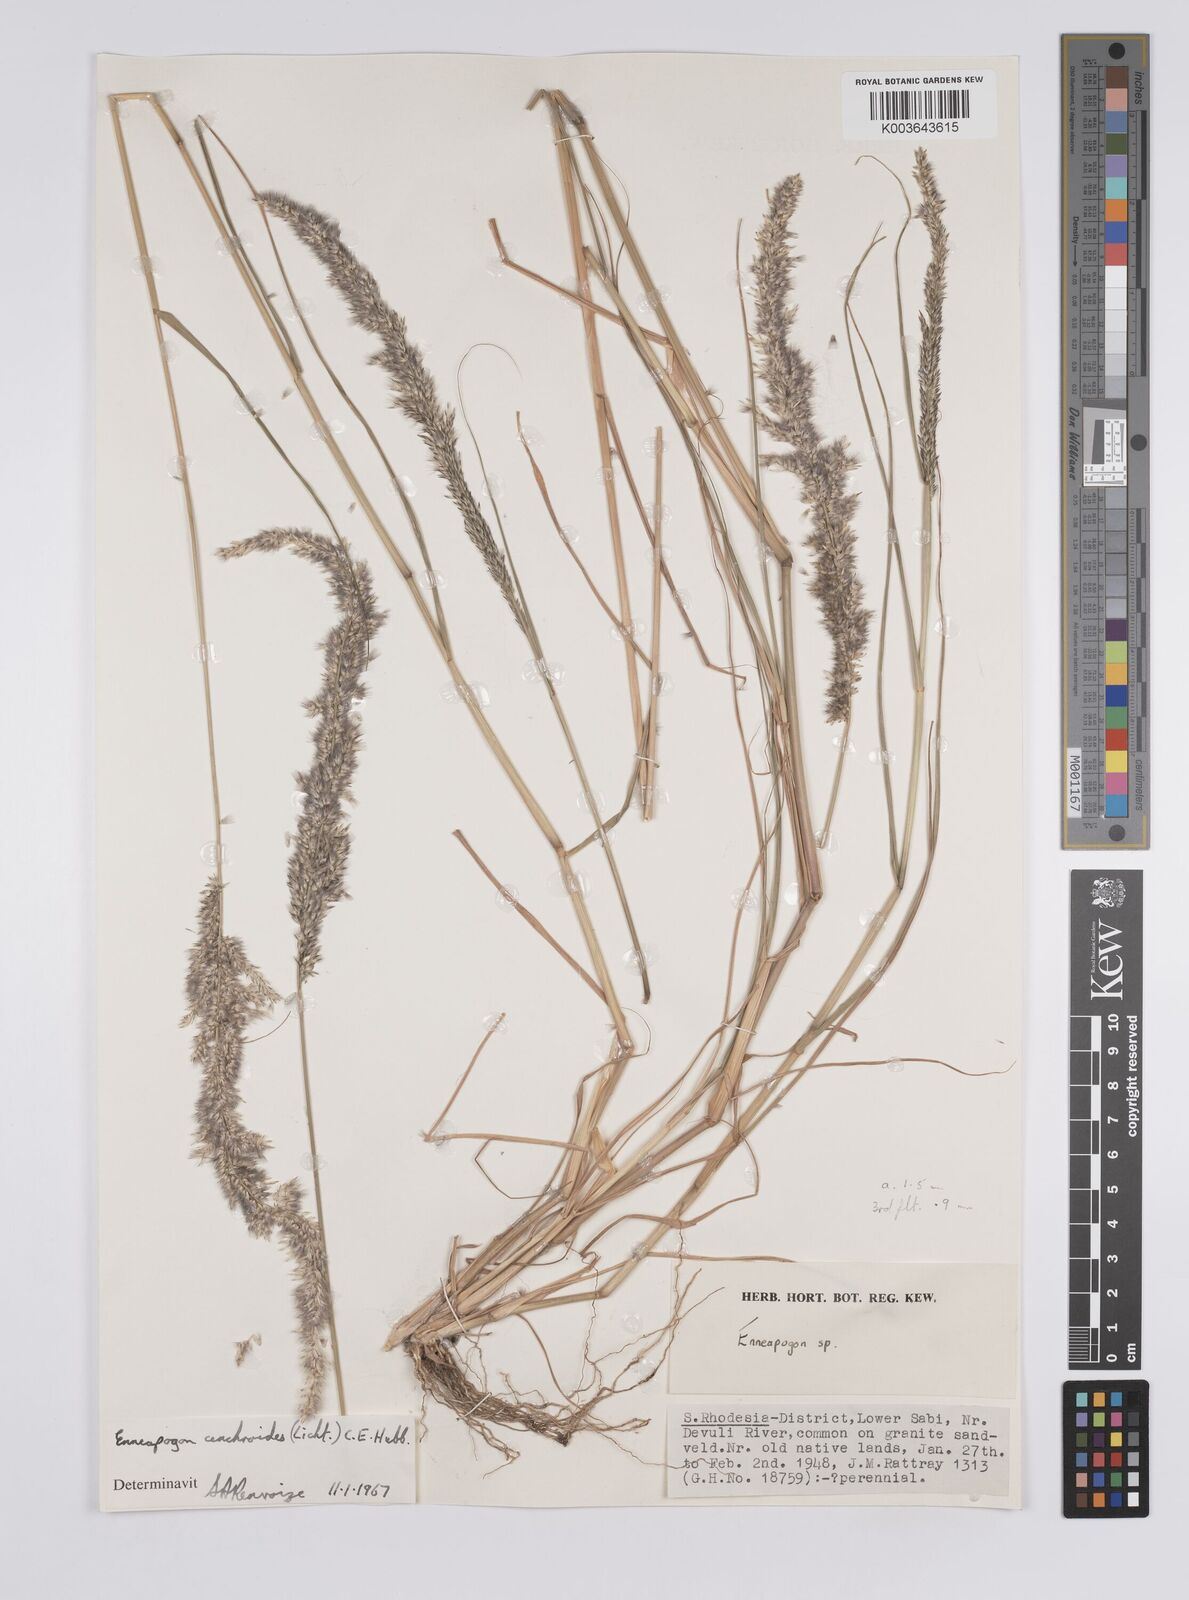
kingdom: Plantae
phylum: Tracheophyta
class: Liliopsida
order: Poales
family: Poaceae
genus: Enneapogon
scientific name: Enneapogon cenchroides
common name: Soft feather pappusgrass
